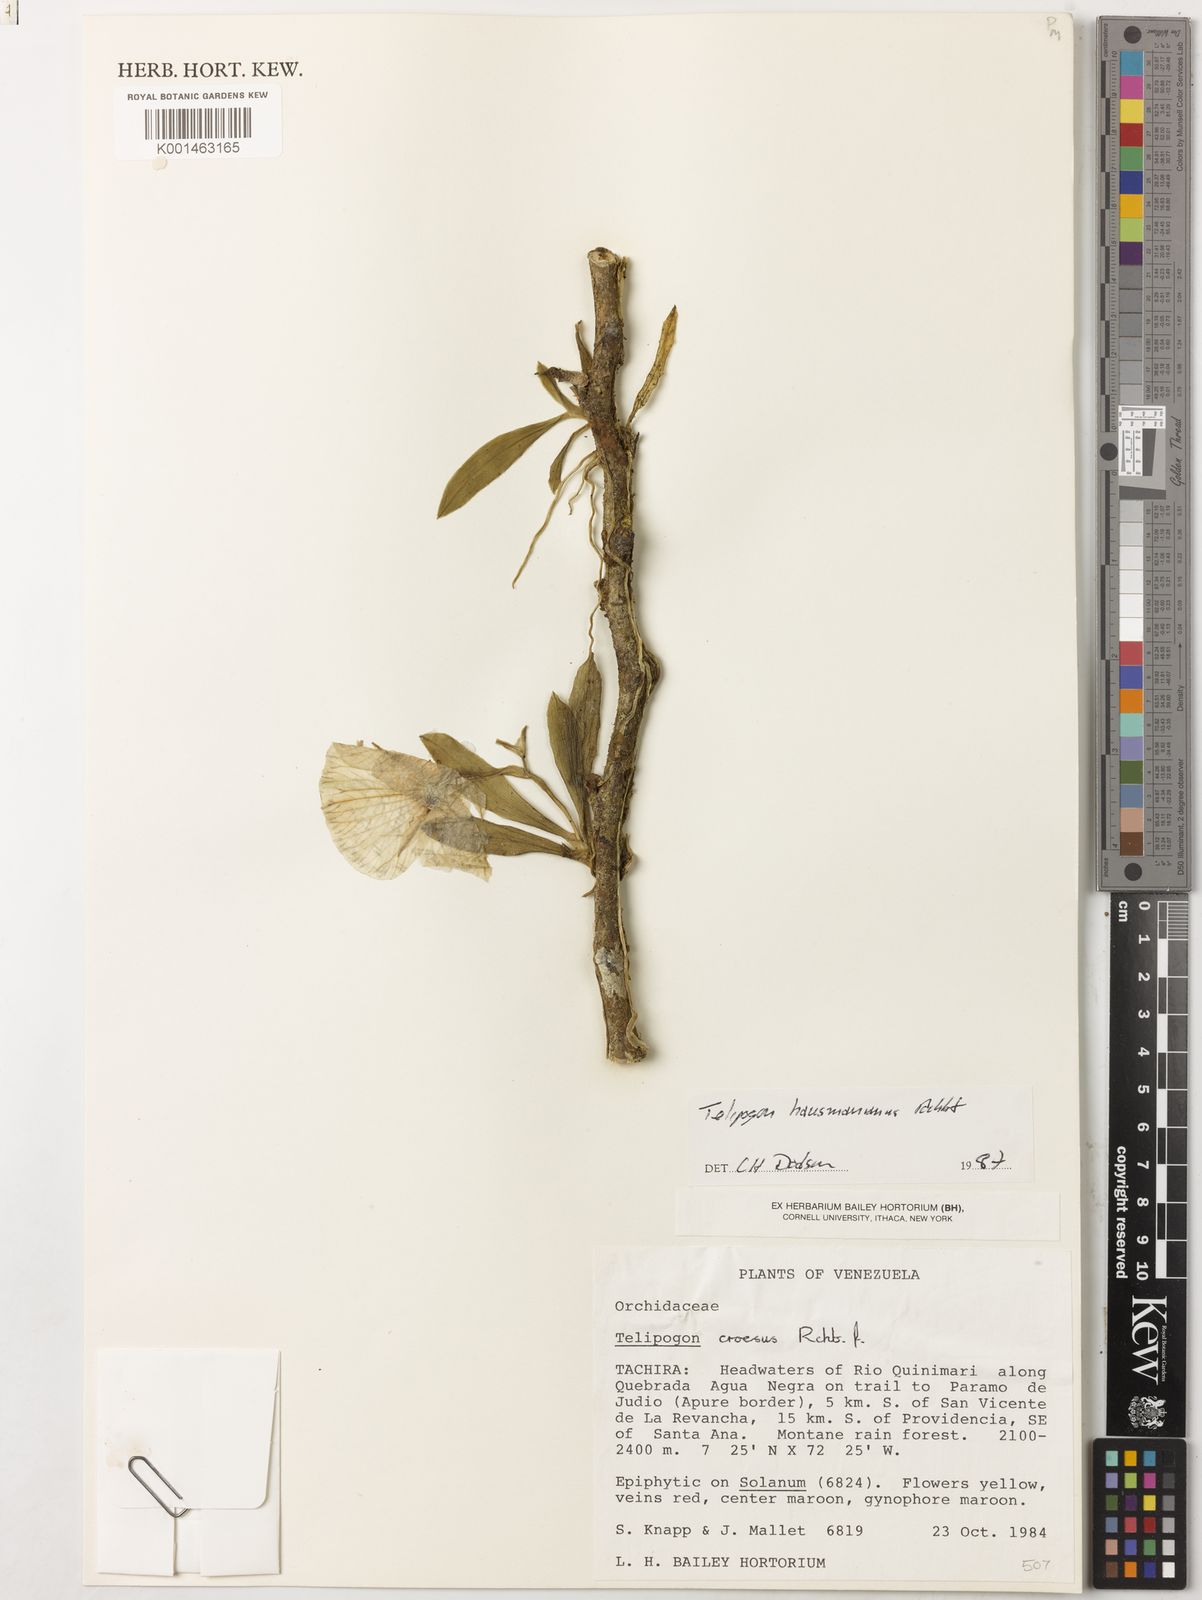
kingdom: Plantae
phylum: Tracheophyta
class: Liliopsida
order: Asparagales
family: Orchidaceae
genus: Telipogon
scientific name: Telipogon hausmannianus
